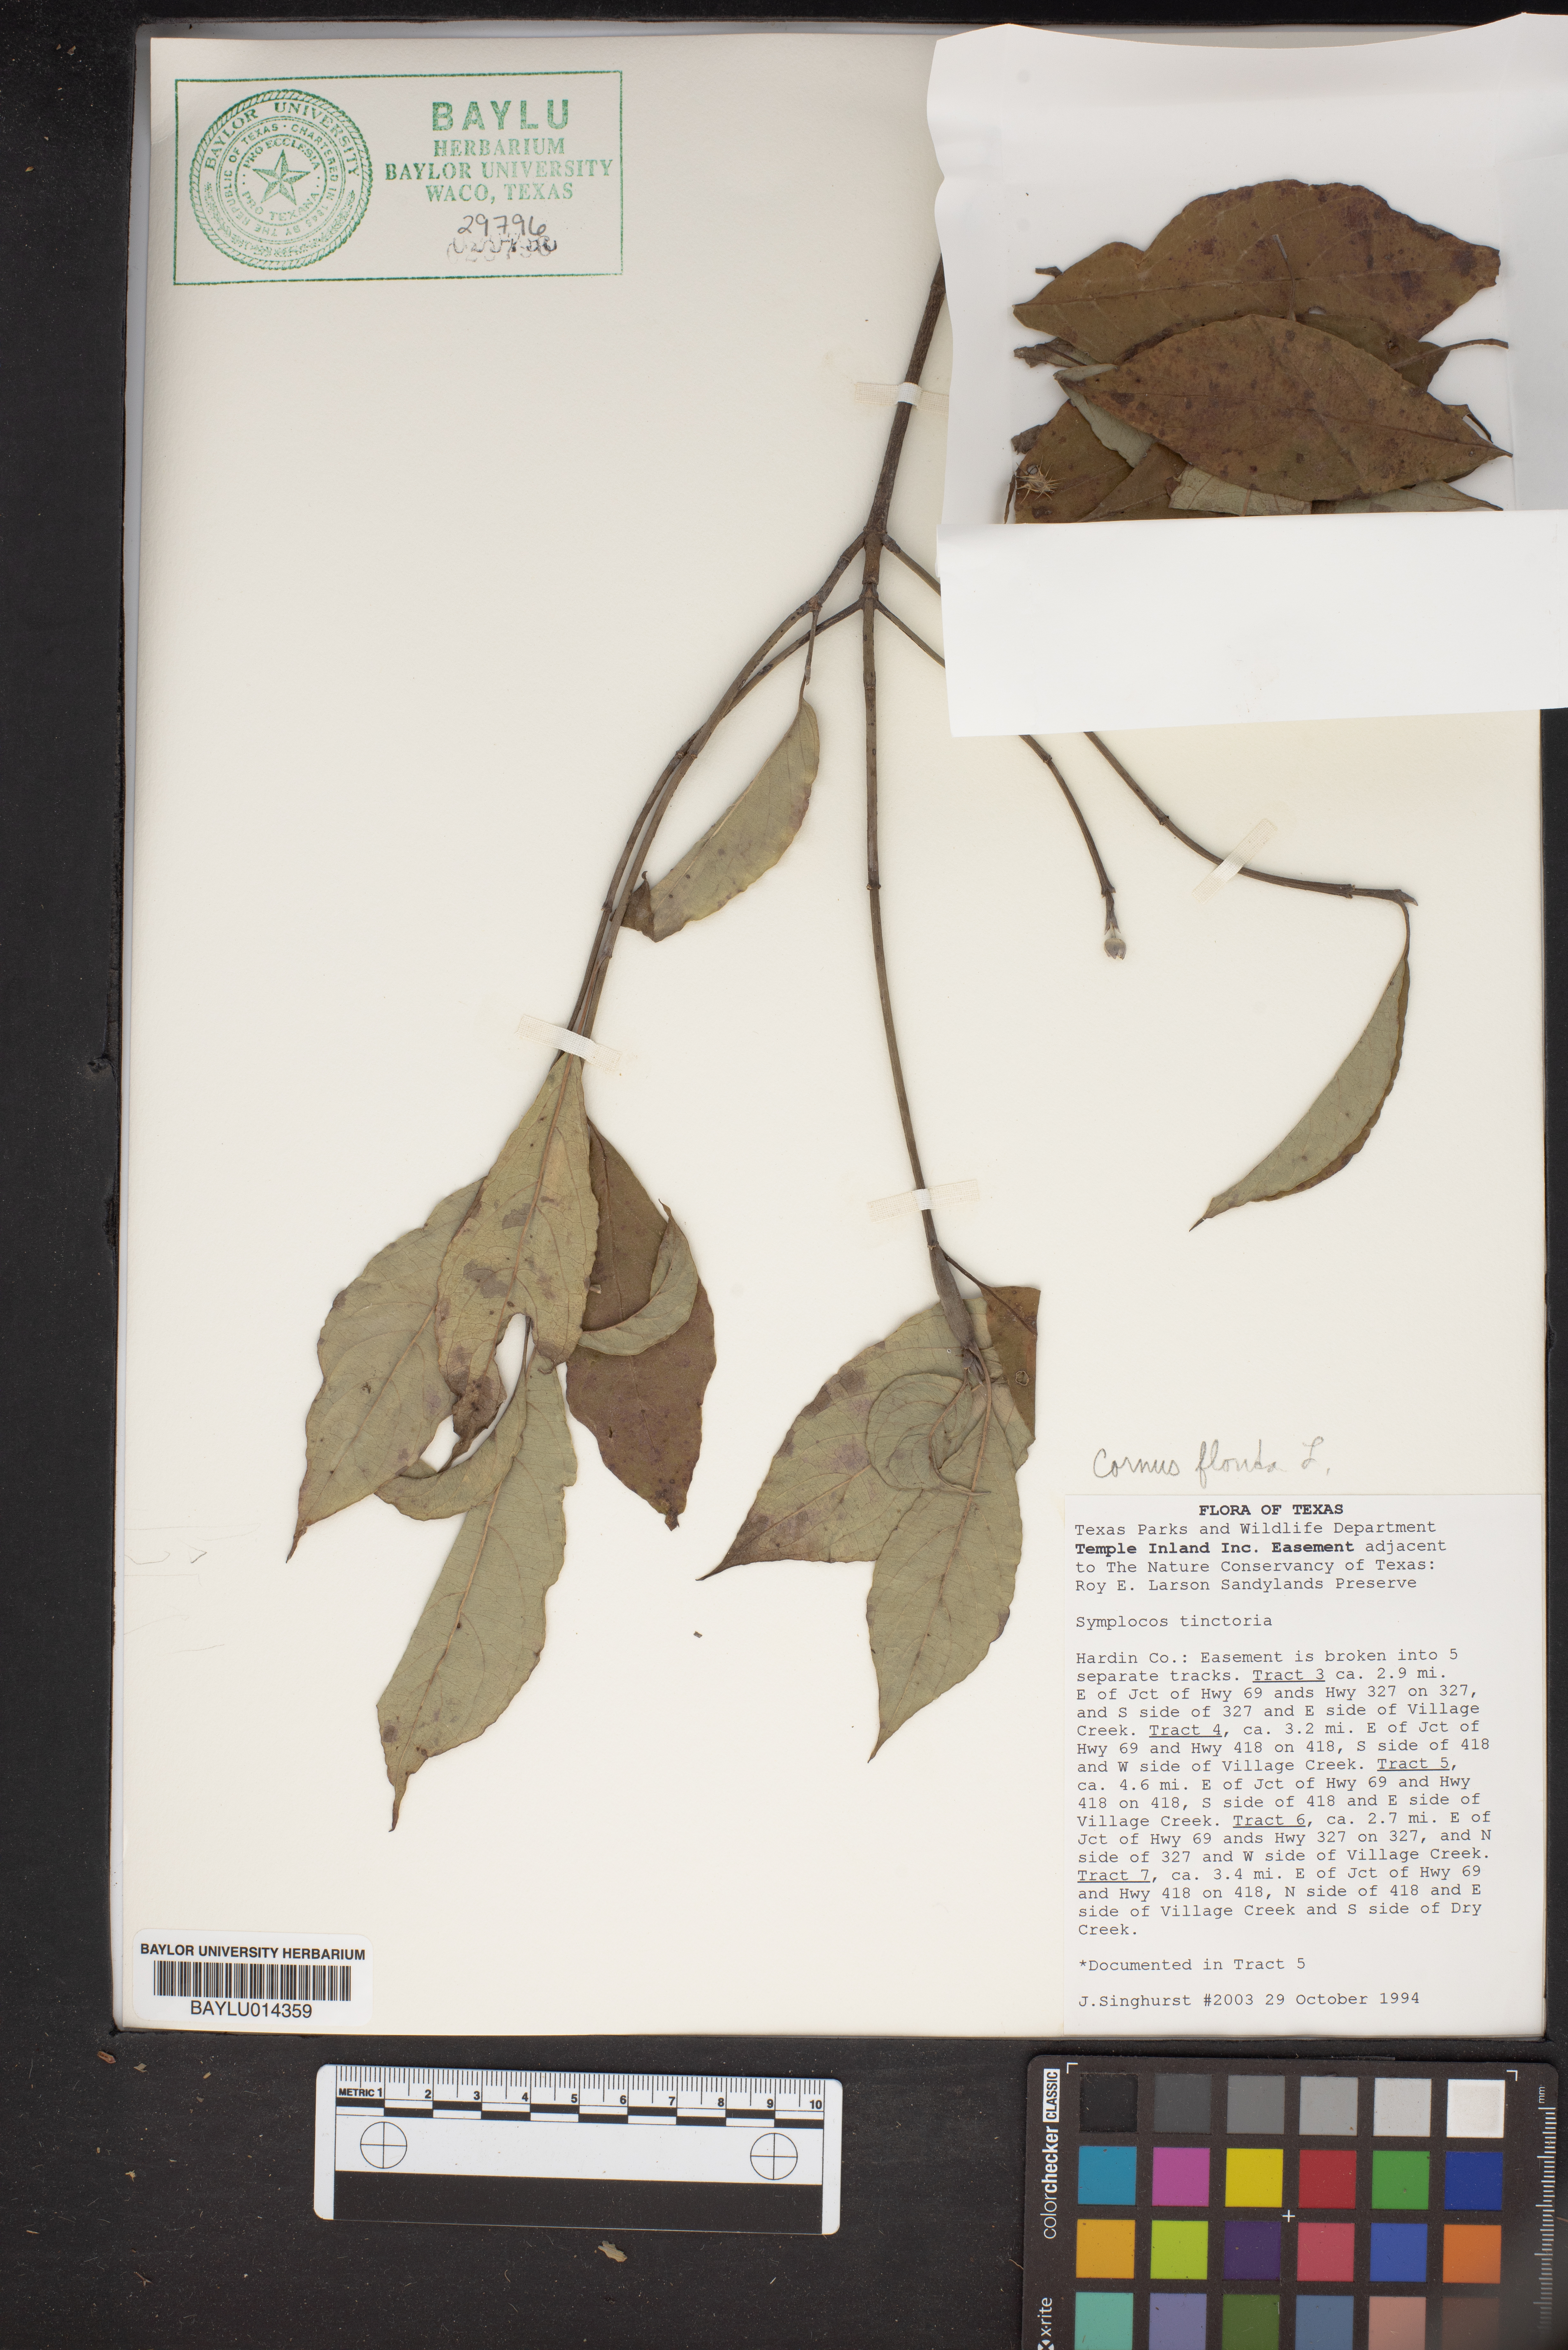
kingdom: Plantae
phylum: Tracheophyta
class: Magnoliopsida
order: Ericales
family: Symplocaceae
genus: Symplocos
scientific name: Symplocos tinctoria
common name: Horse-sugar
